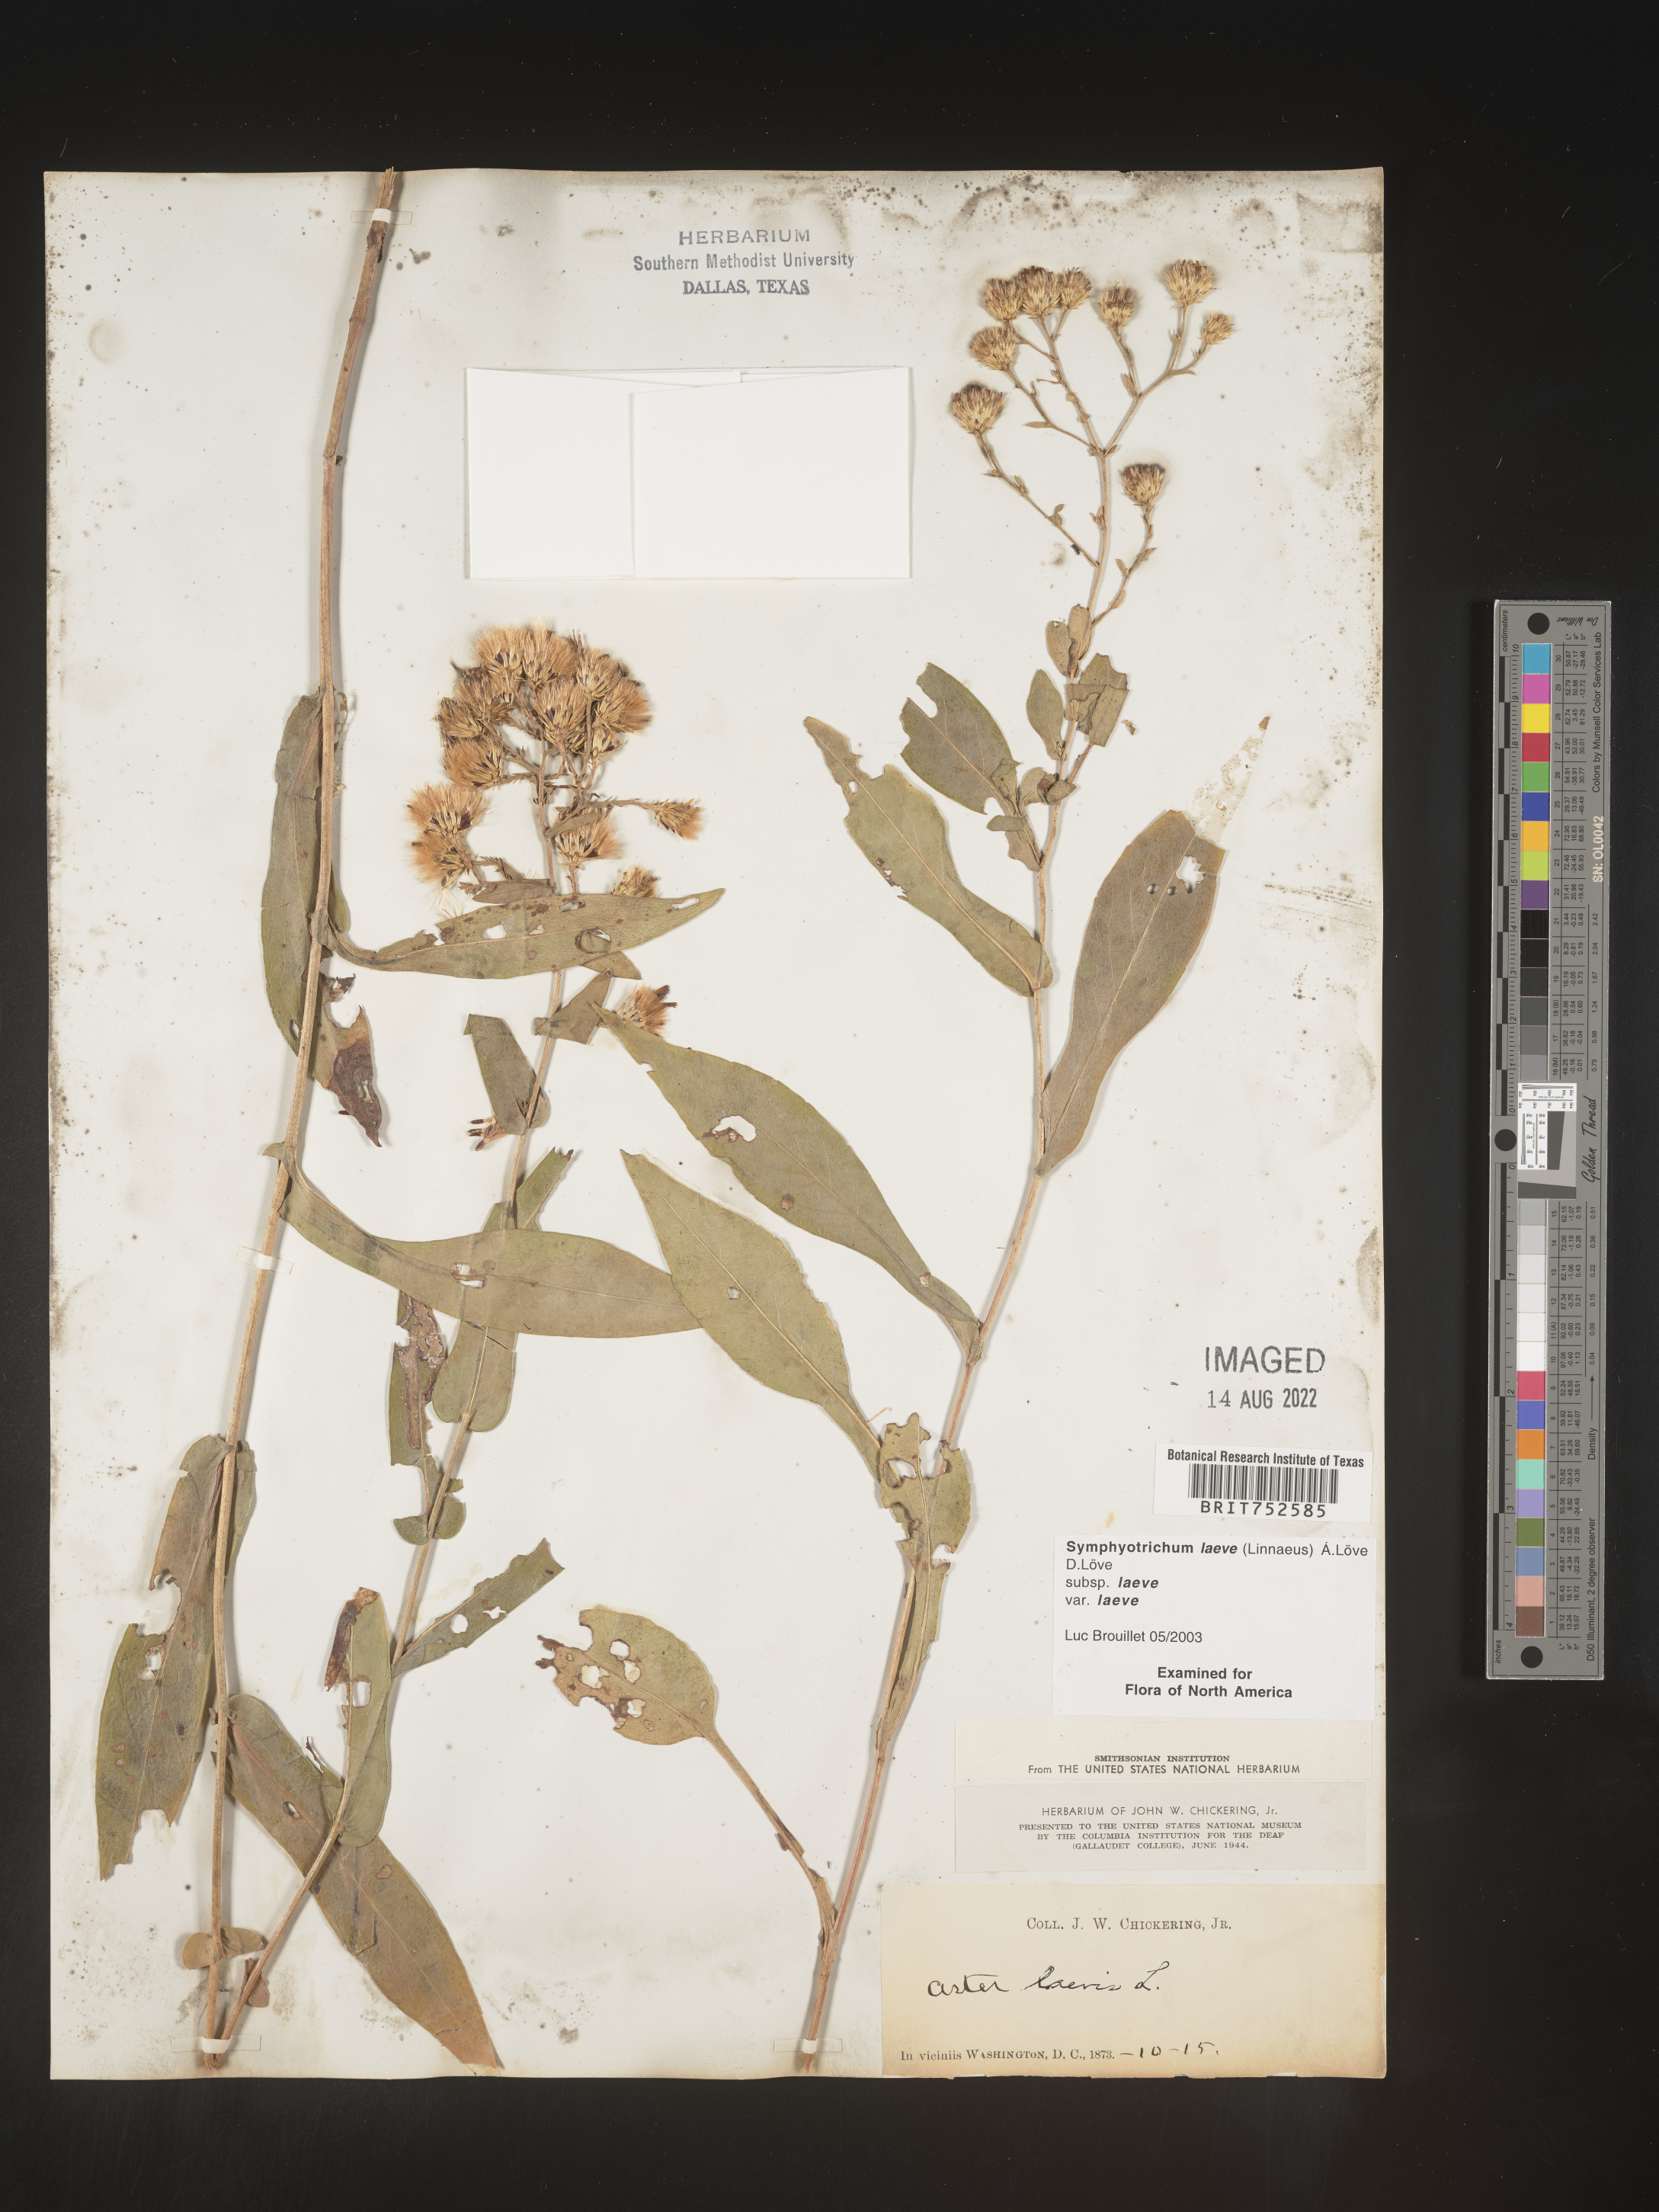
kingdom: Plantae
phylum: Tracheophyta
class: Magnoliopsida
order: Asterales
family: Asteraceae
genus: Symphyotrichum
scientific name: Symphyotrichum laeve
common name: Glaucous aster
